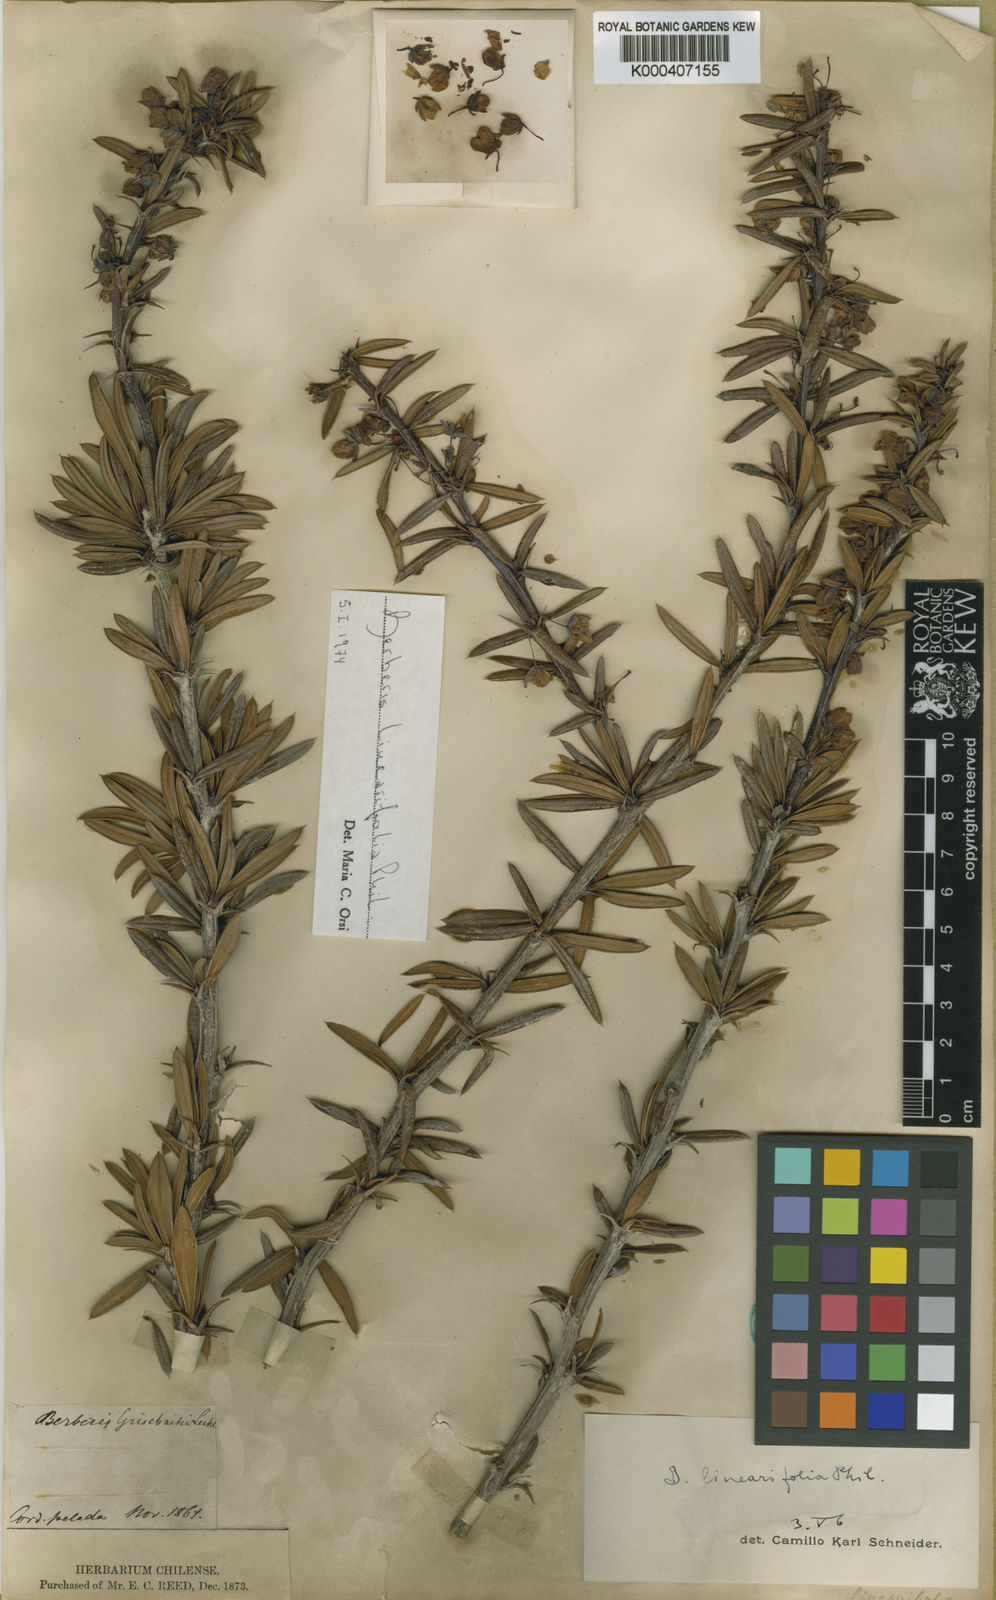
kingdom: Plantae
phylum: Tracheophyta
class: Magnoliopsida
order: Ranunculales
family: Berberidaceae
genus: Berberis
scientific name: Berberis trigona
